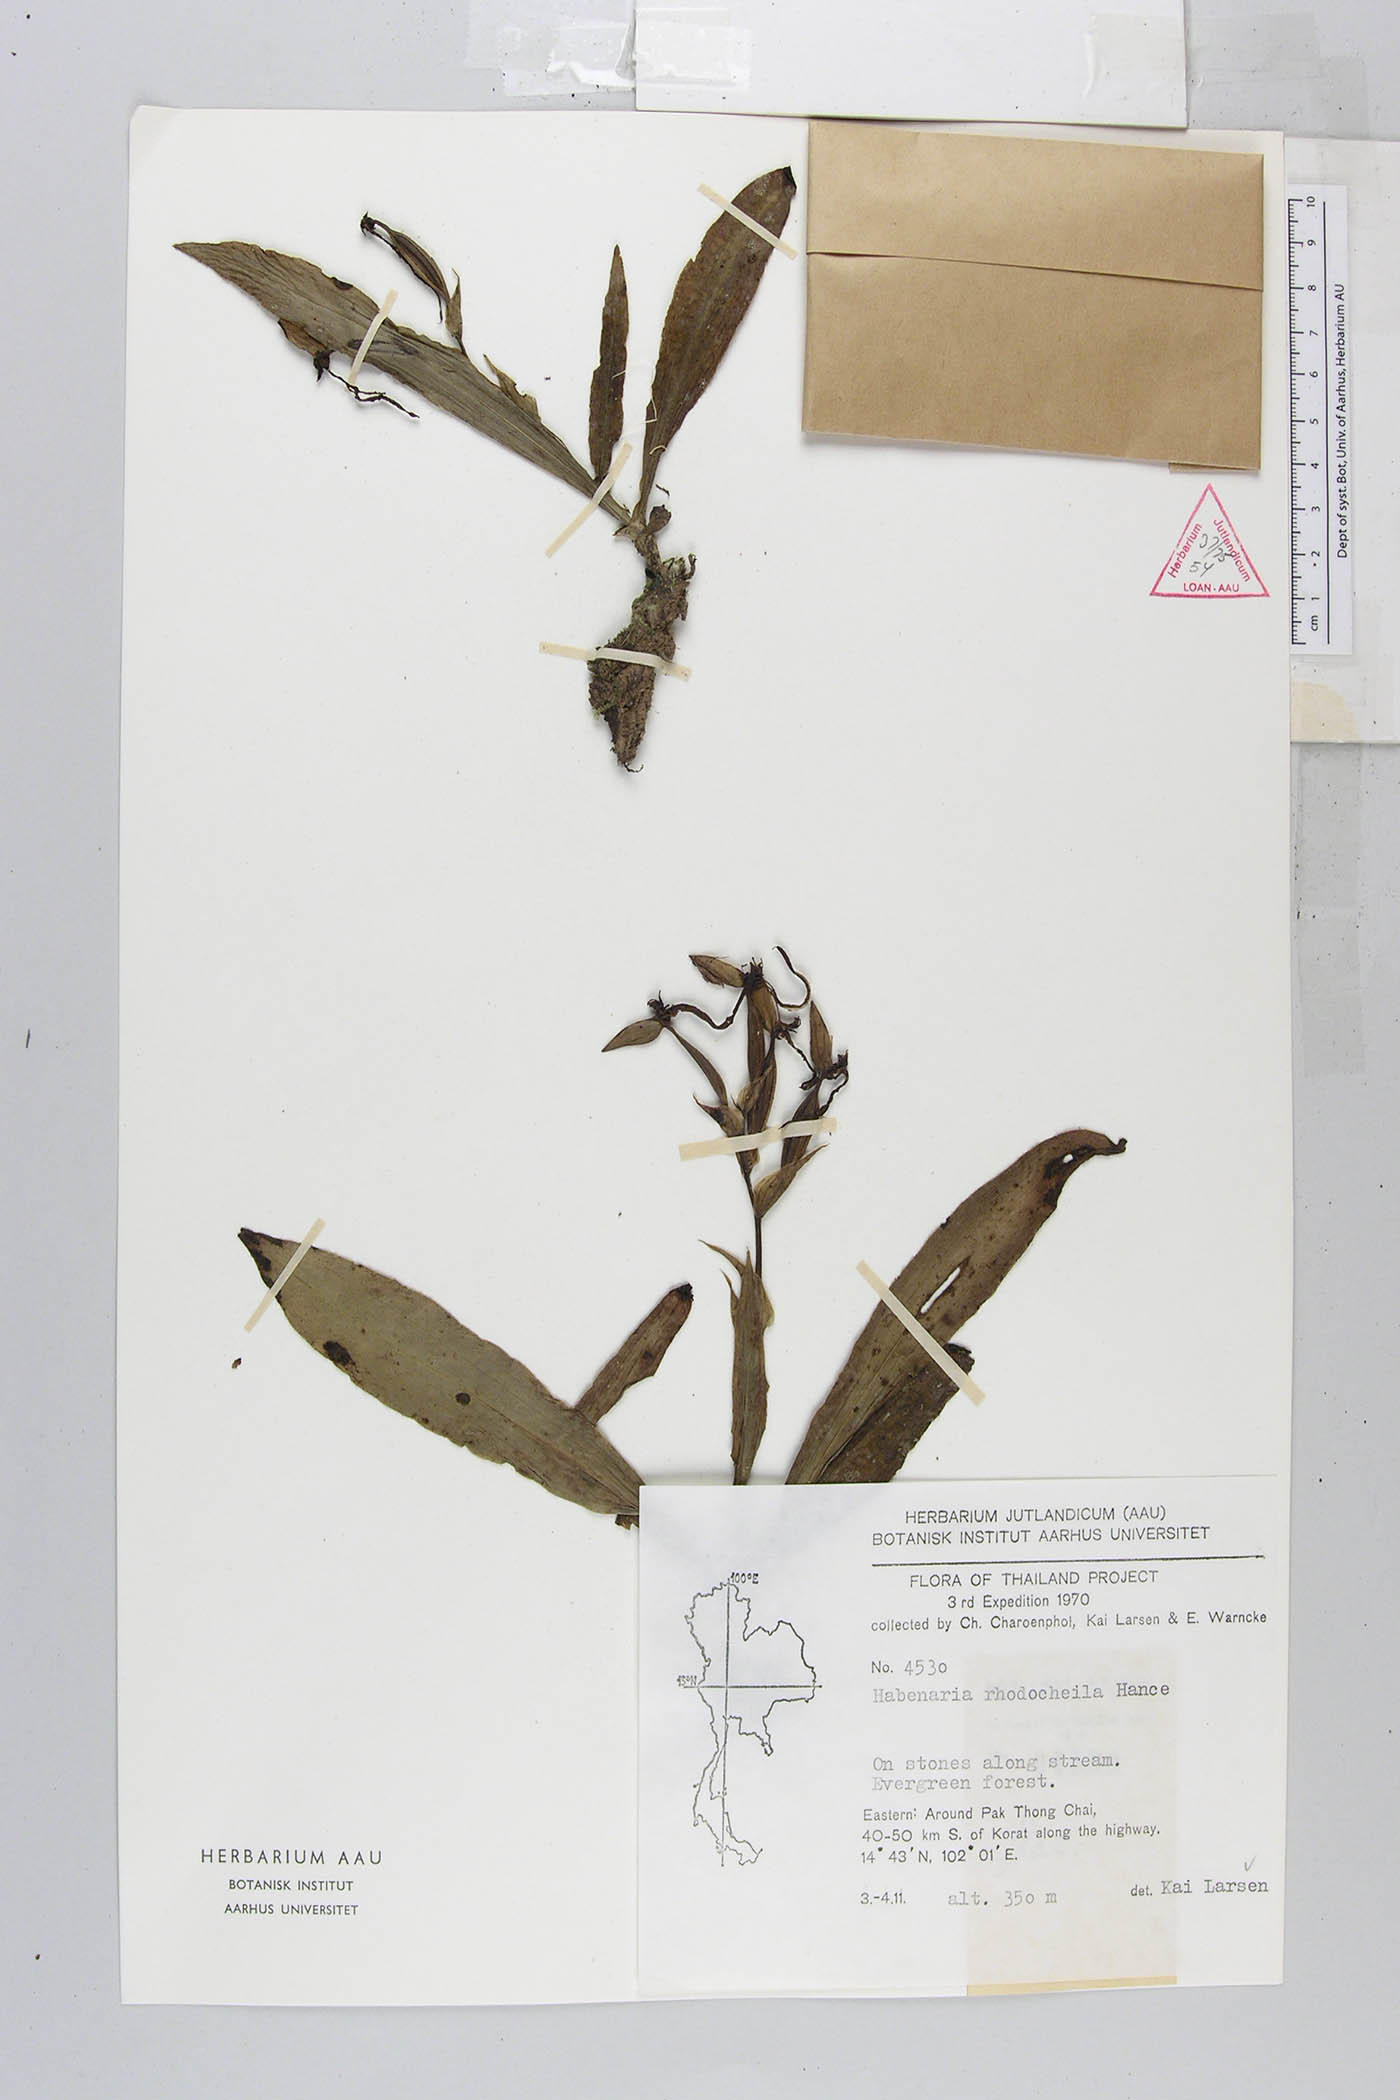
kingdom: Plantae
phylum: Tracheophyta
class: Liliopsida
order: Asparagales
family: Orchidaceae
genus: Habenaria
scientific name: Habenaria rhodocheila
